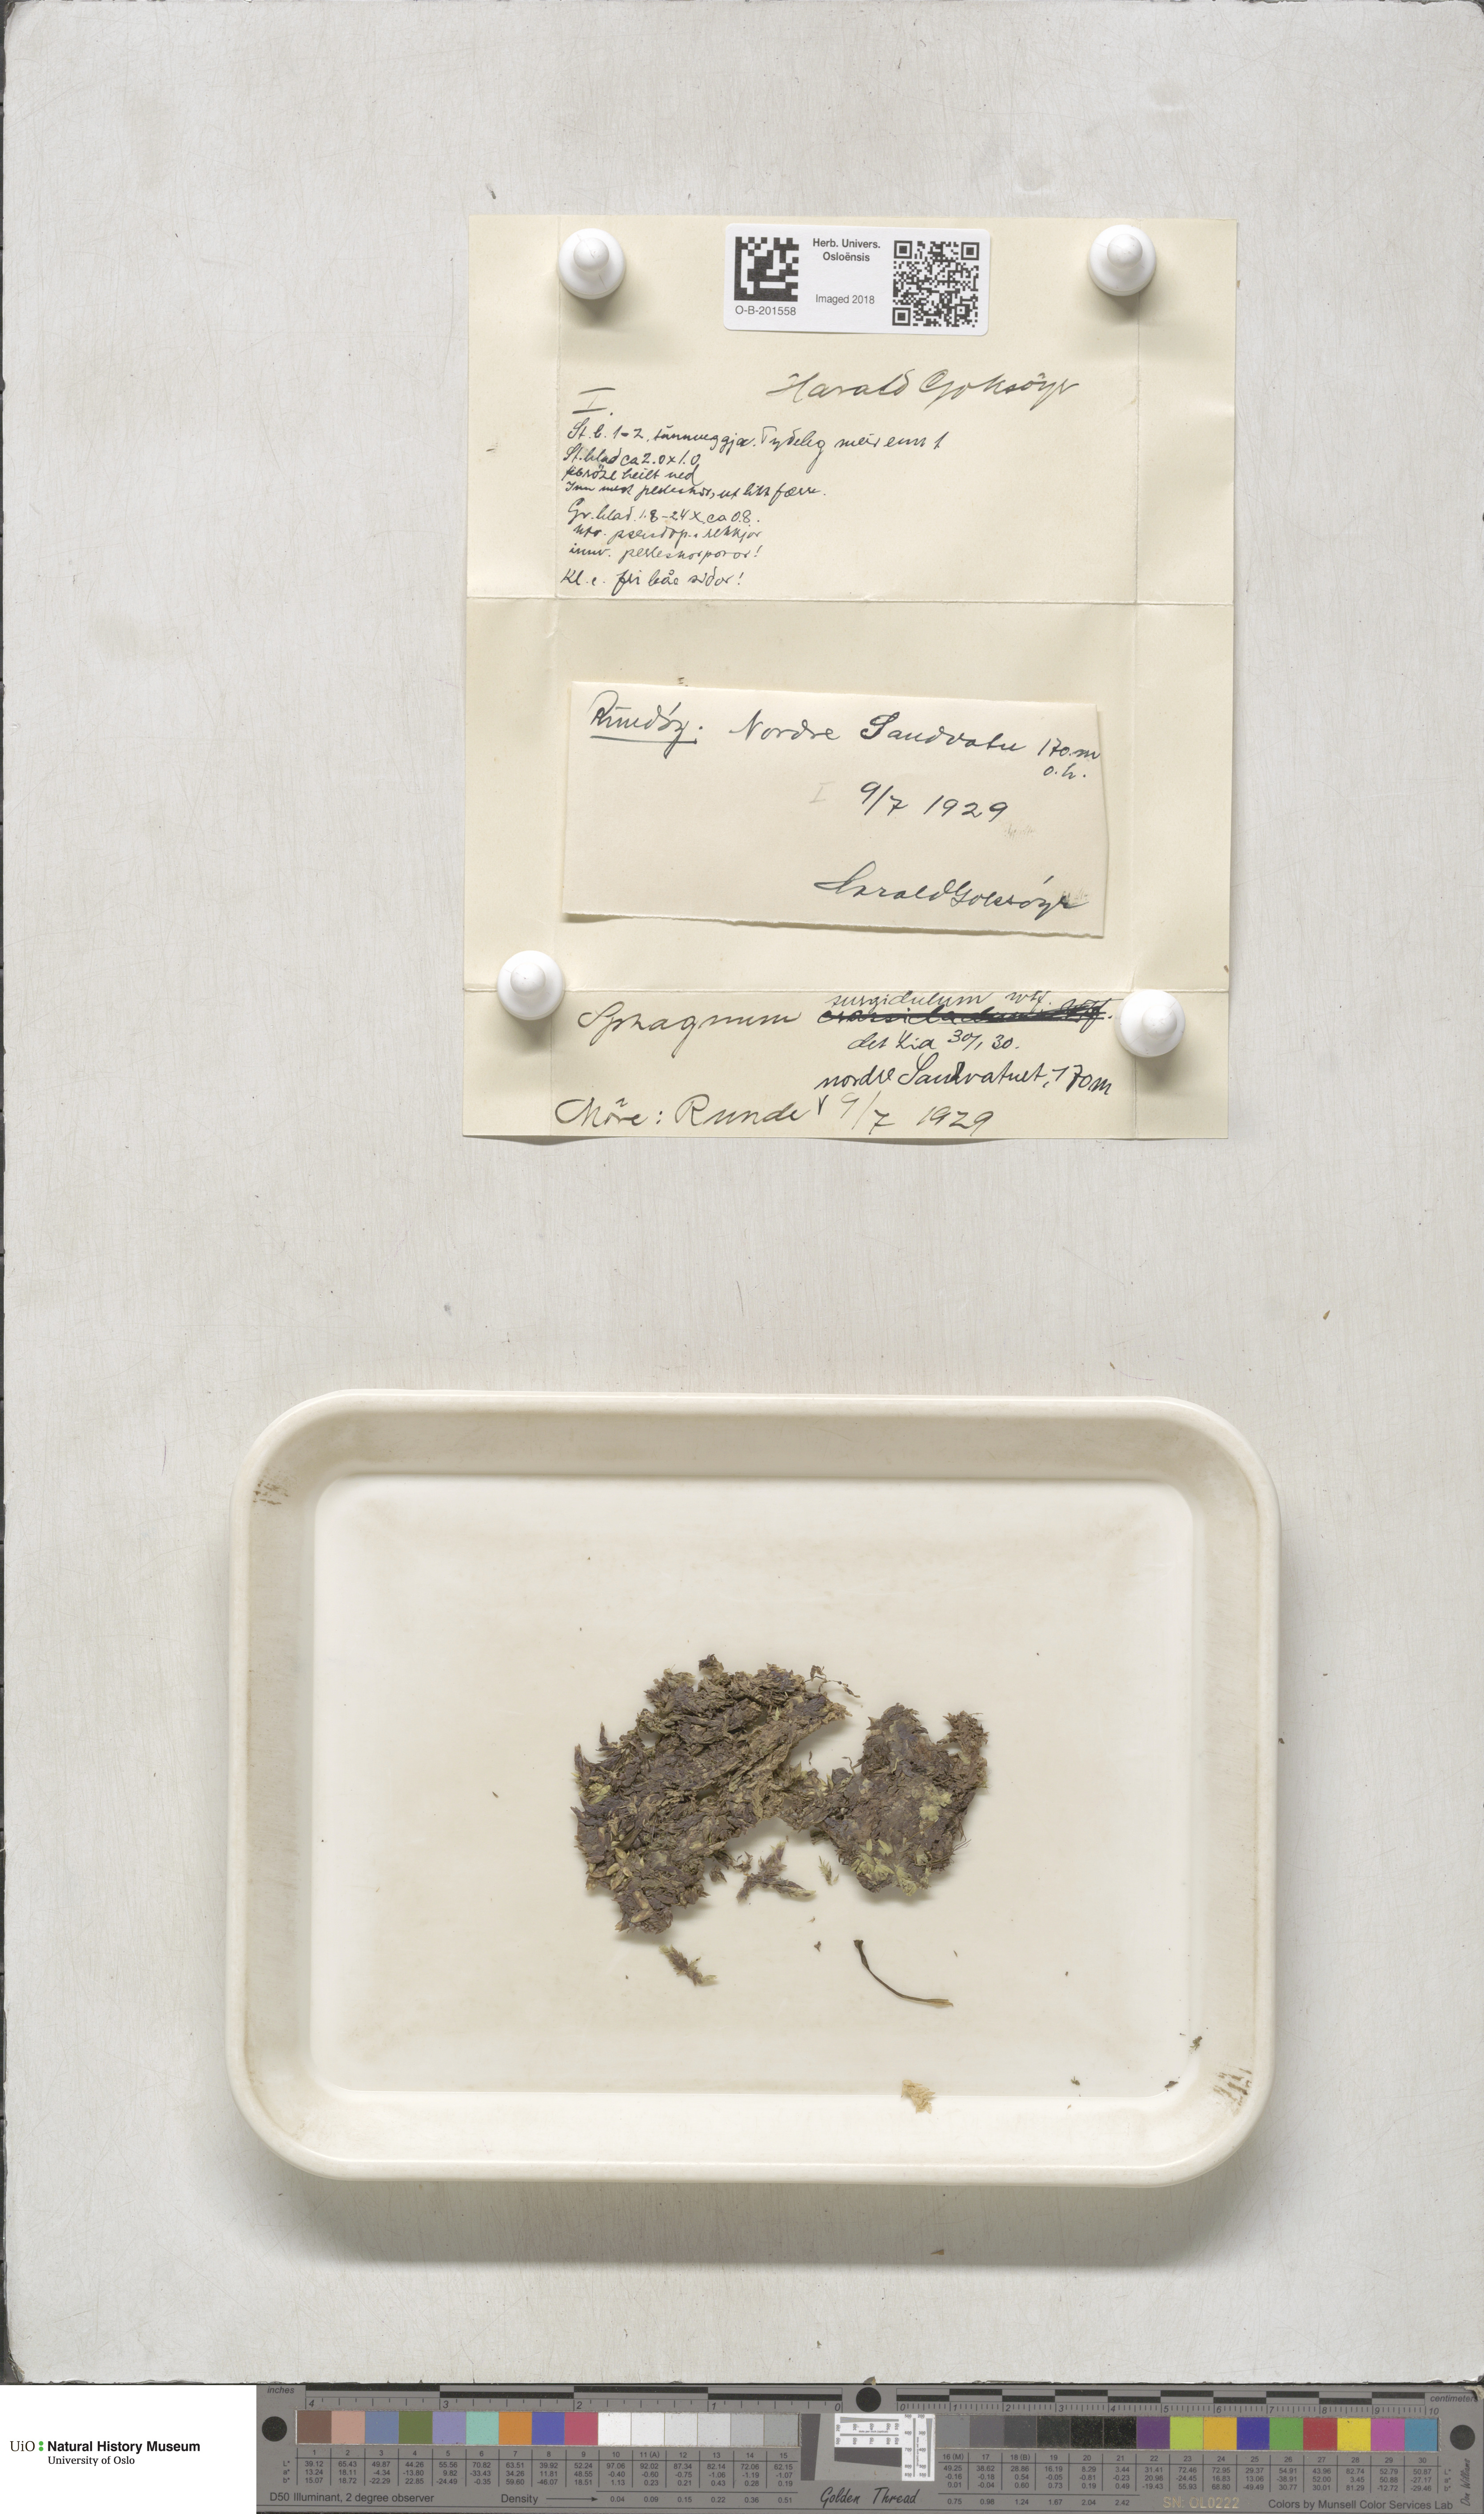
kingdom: Plantae
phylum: Bryophyta
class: Sphagnopsida
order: Sphagnales
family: Sphagnaceae
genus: Sphagnum
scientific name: Sphagnum inundatum
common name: Lesser cow-horn bog-moss
